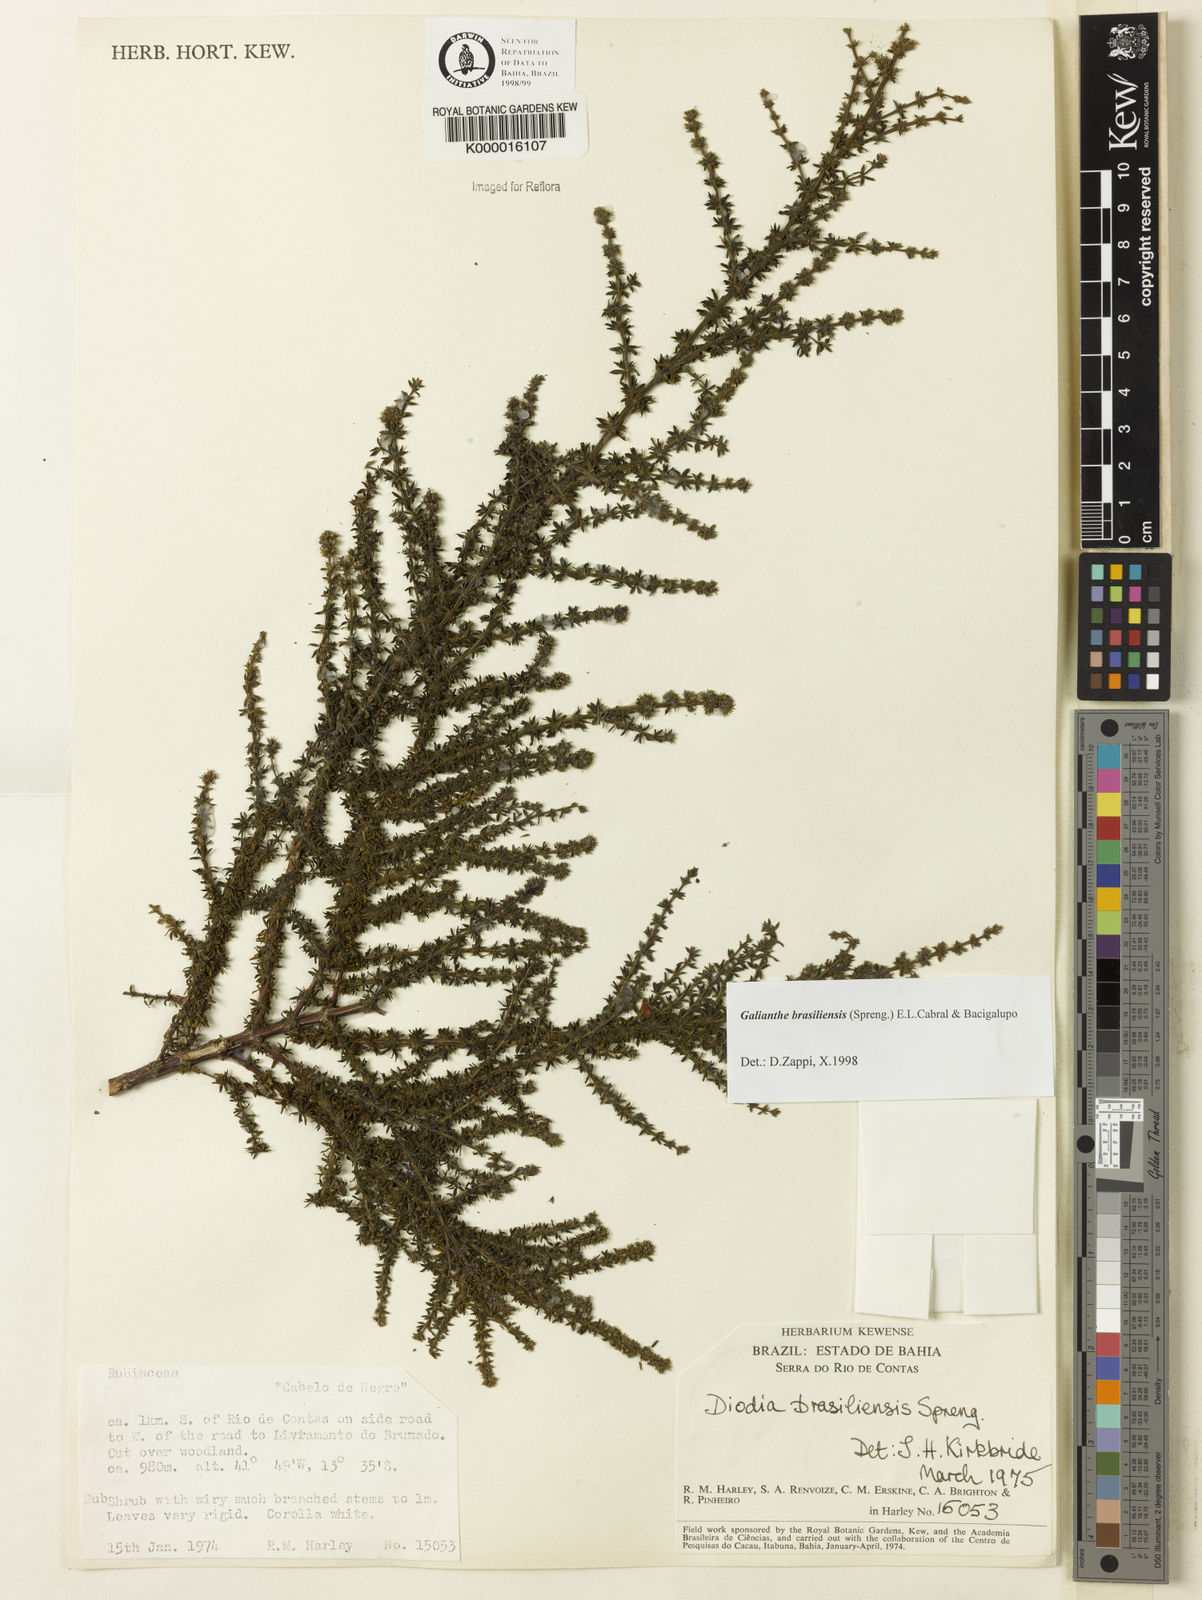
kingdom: Plantae
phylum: Tracheophyta
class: Magnoliopsida
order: Gentianales
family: Rubiaceae
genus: Galianthe
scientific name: Galianthe brasiliensis
